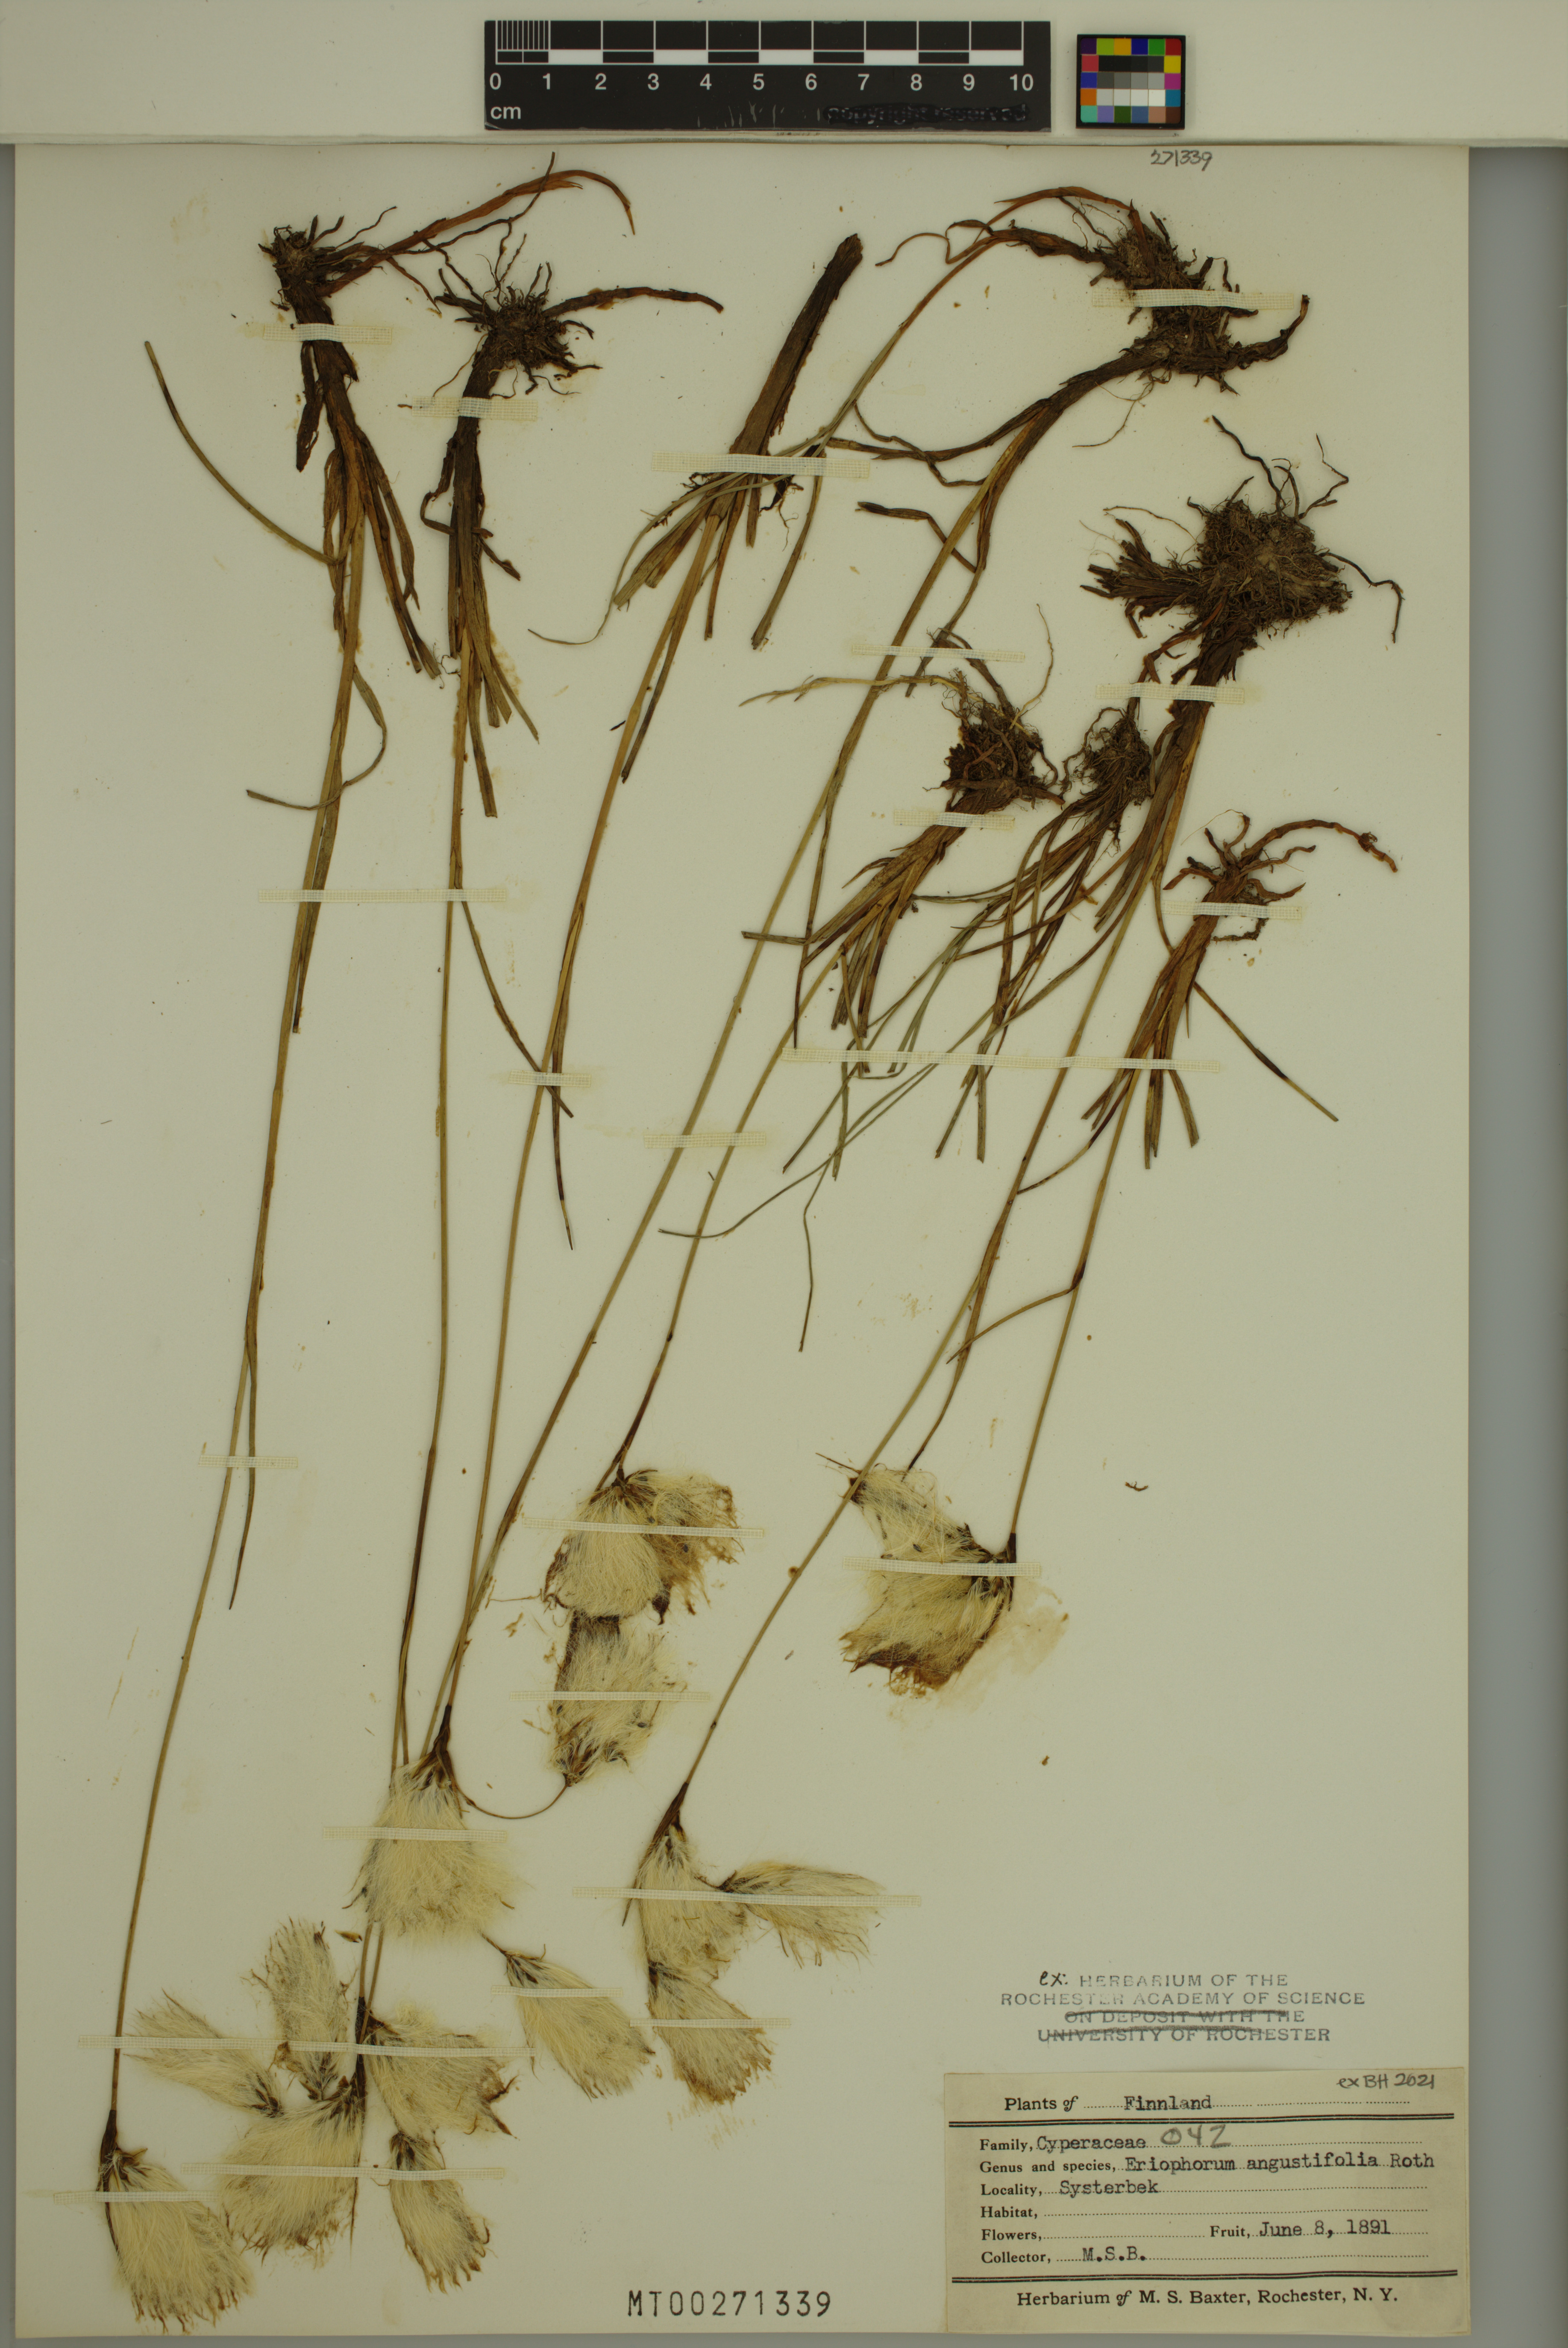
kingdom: Plantae
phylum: Tracheophyta
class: Liliopsida
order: Poales
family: Cyperaceae
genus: Eriophorum
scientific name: Eriophorum angustifolium
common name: Common cottongrass
